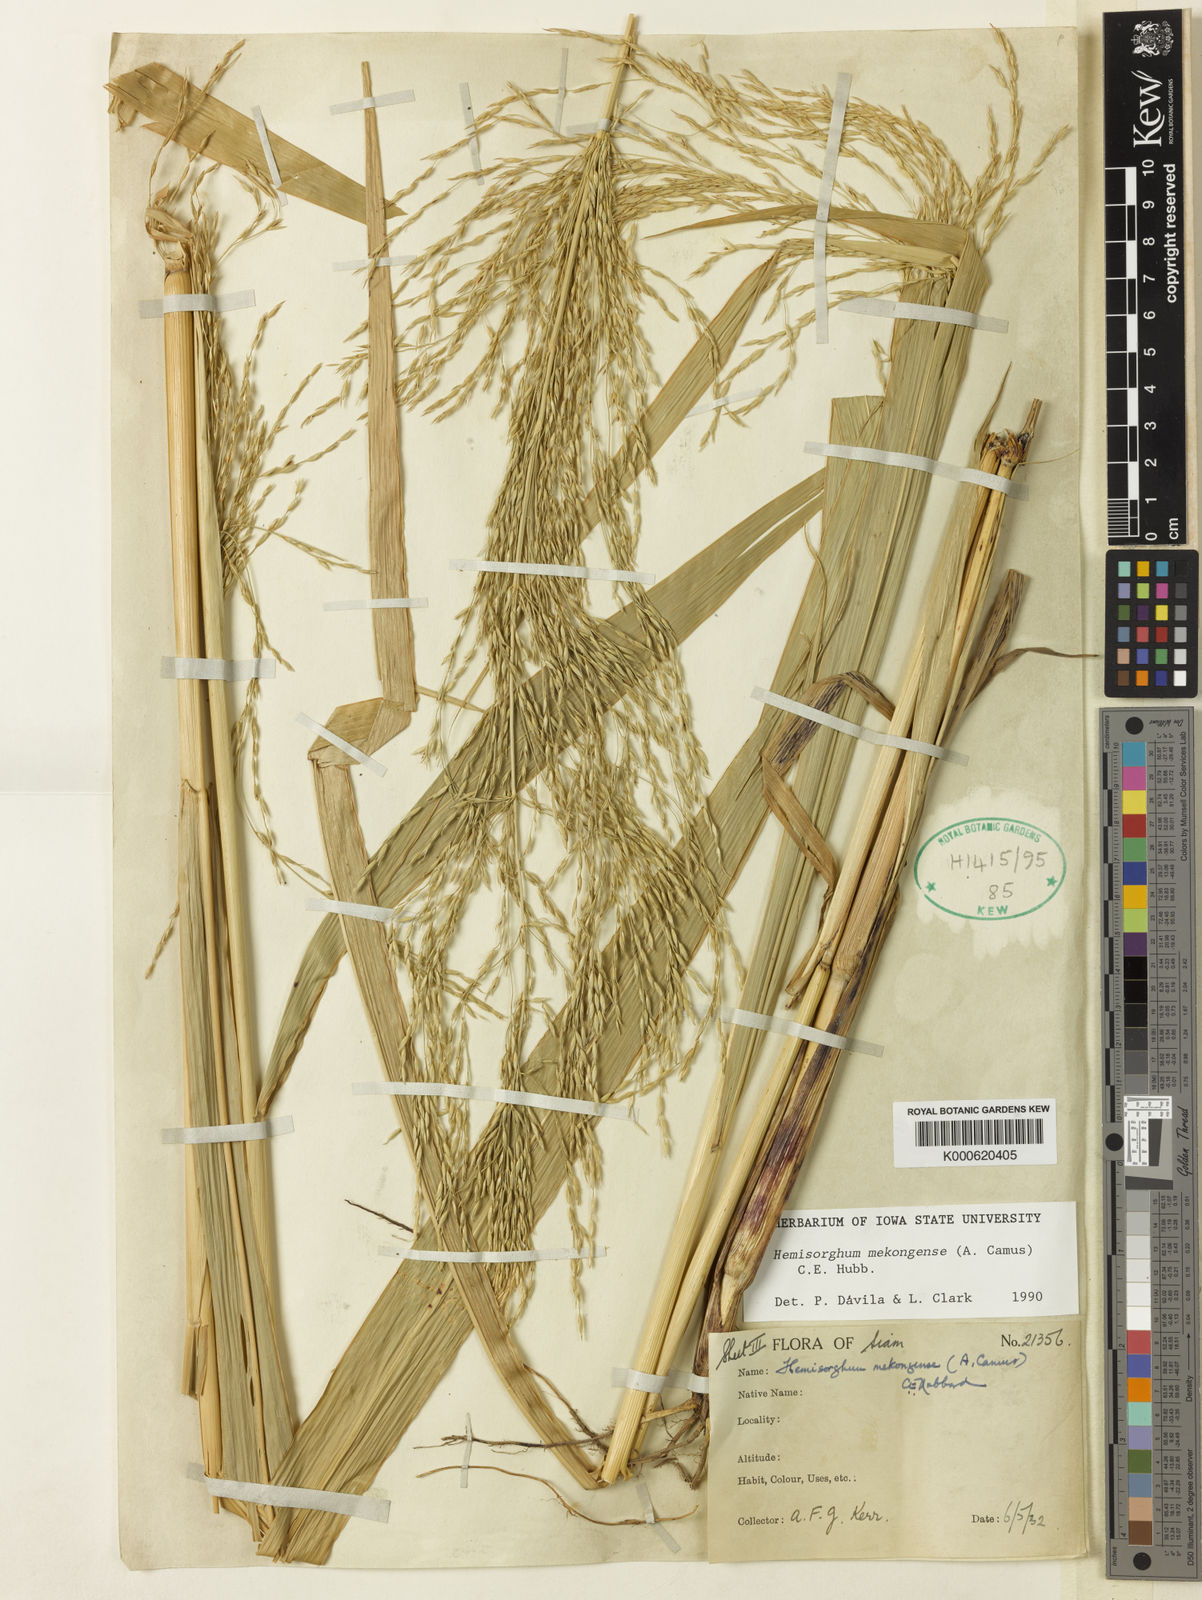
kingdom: Plantae
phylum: Tracheophyta
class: Liliopsida
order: Poales
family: Poaceae
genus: Hemisorghum
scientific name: Hemisorghum mekongense
